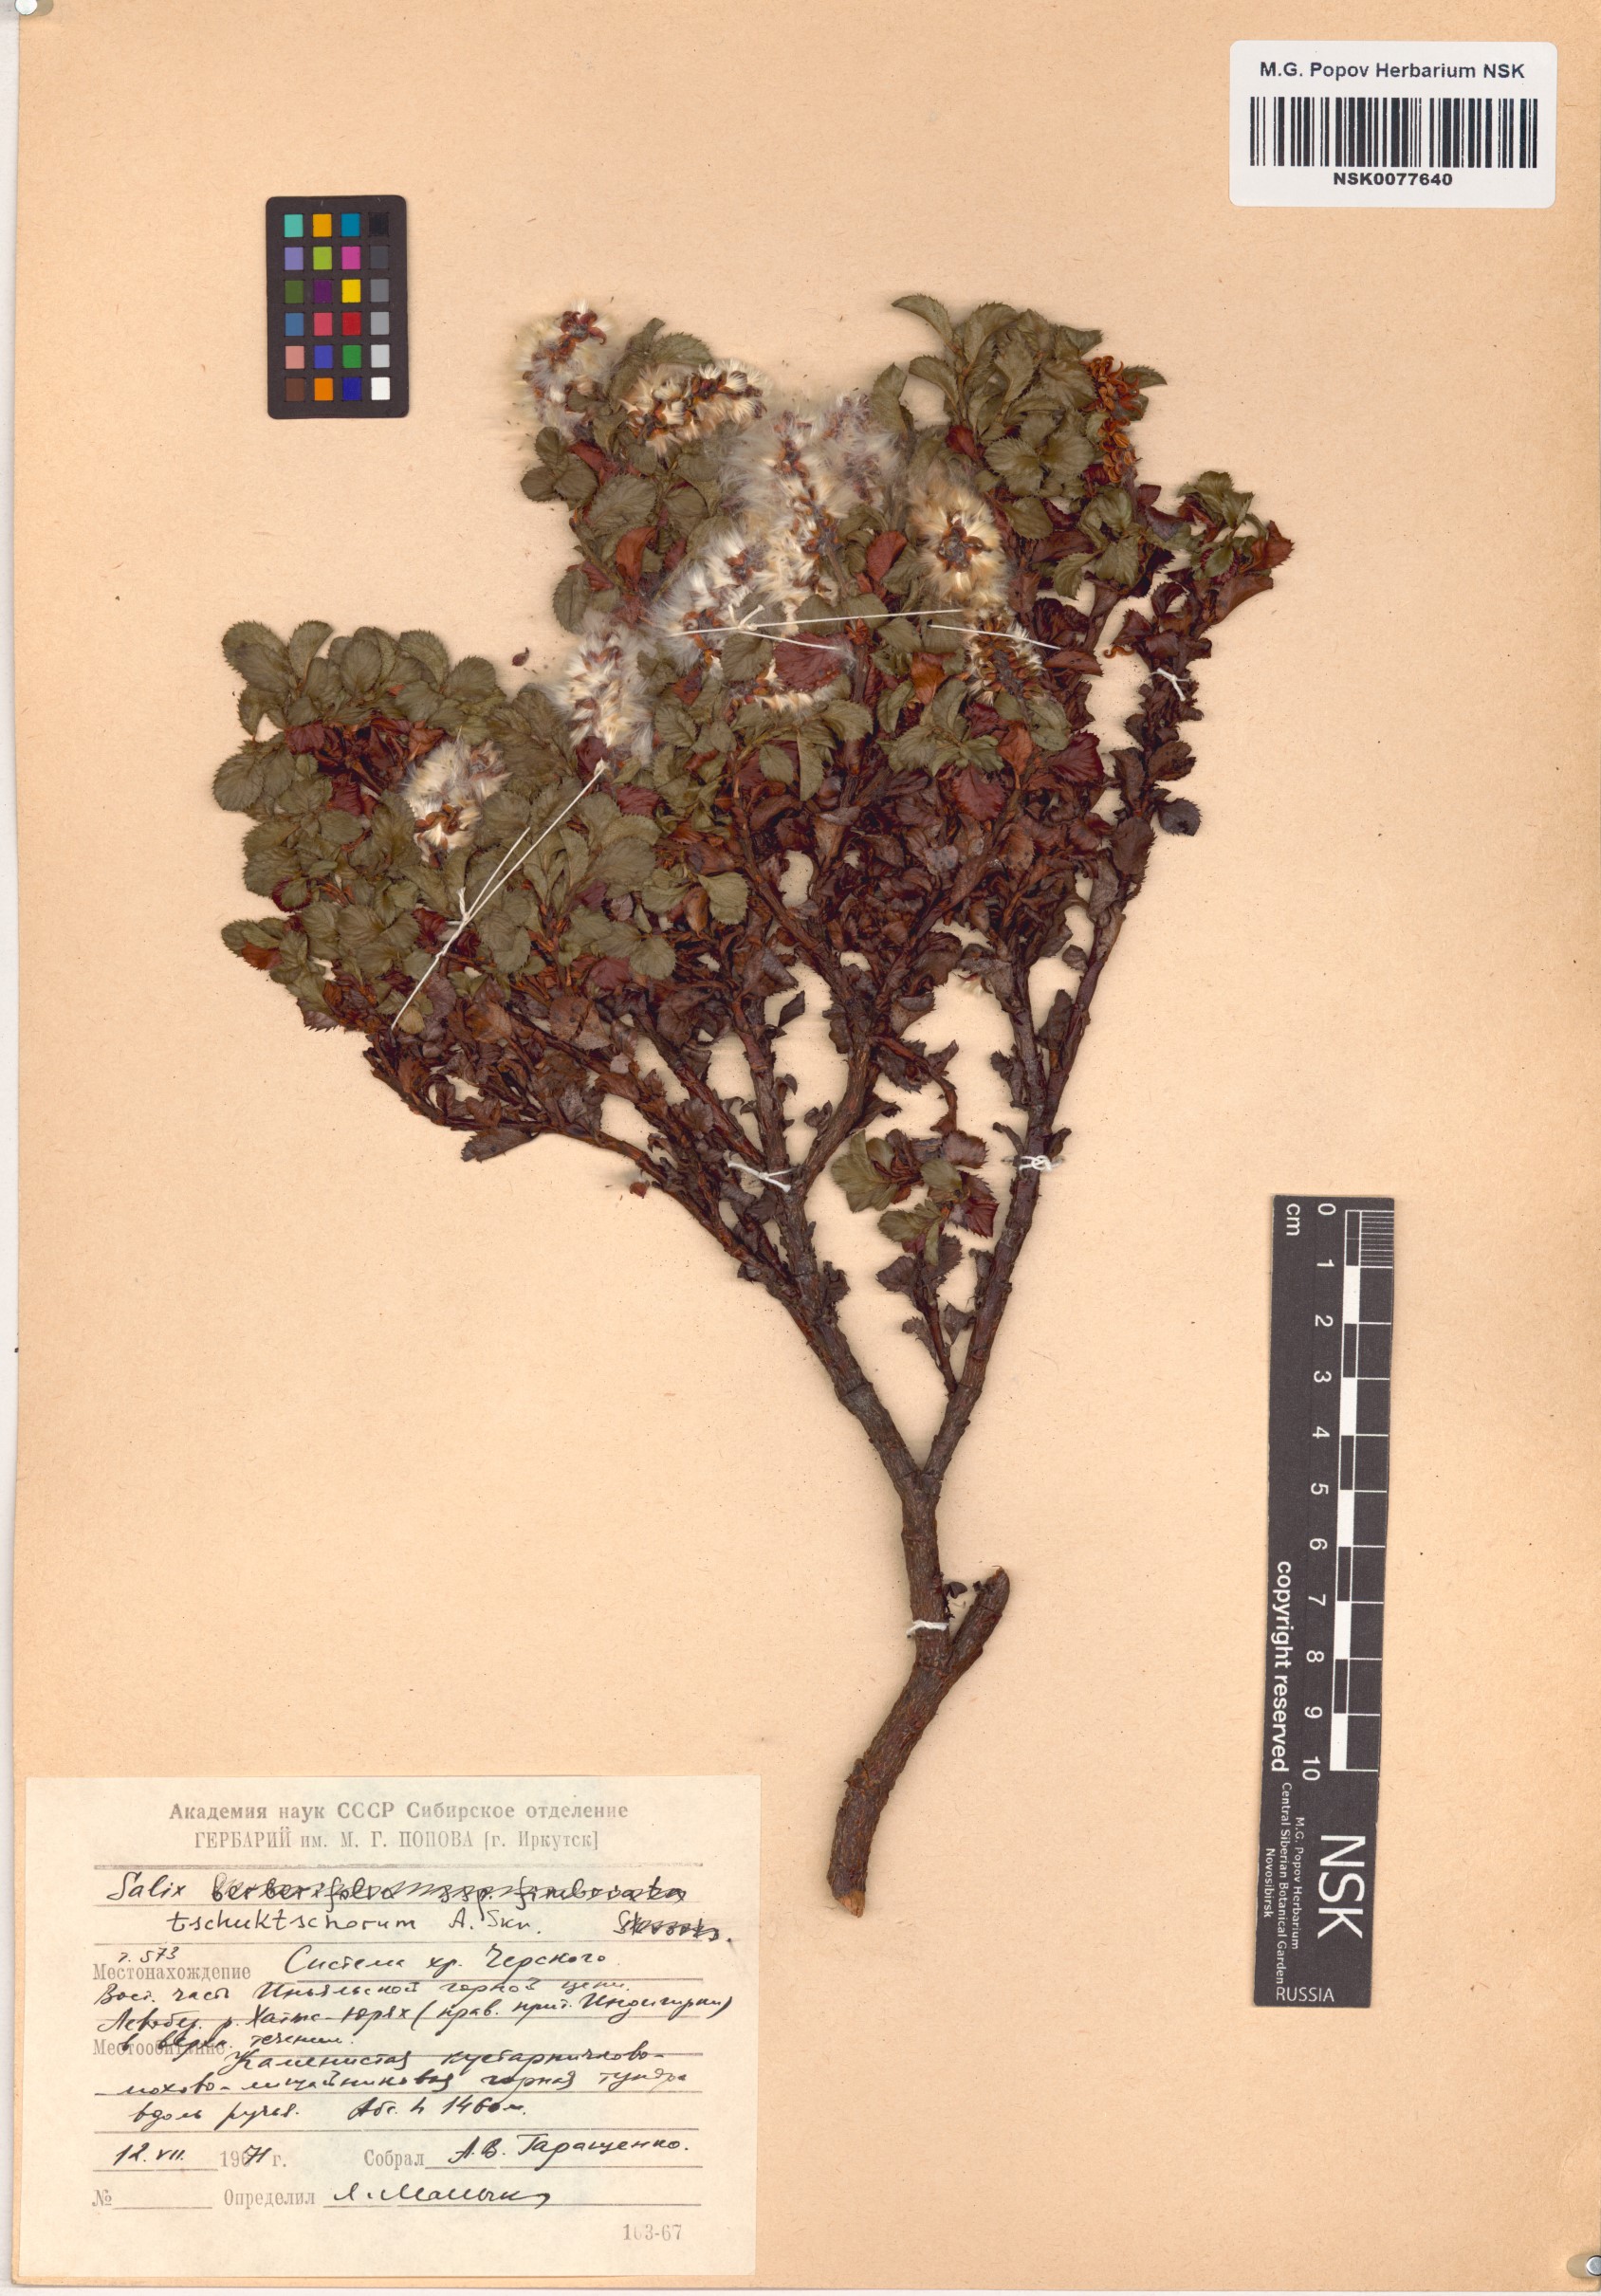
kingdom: Plantae
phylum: Tracheophyta
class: Magnoliopsida
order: Malpighiales
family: Salicaceae
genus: Salix
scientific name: Salix tschuktschorum
